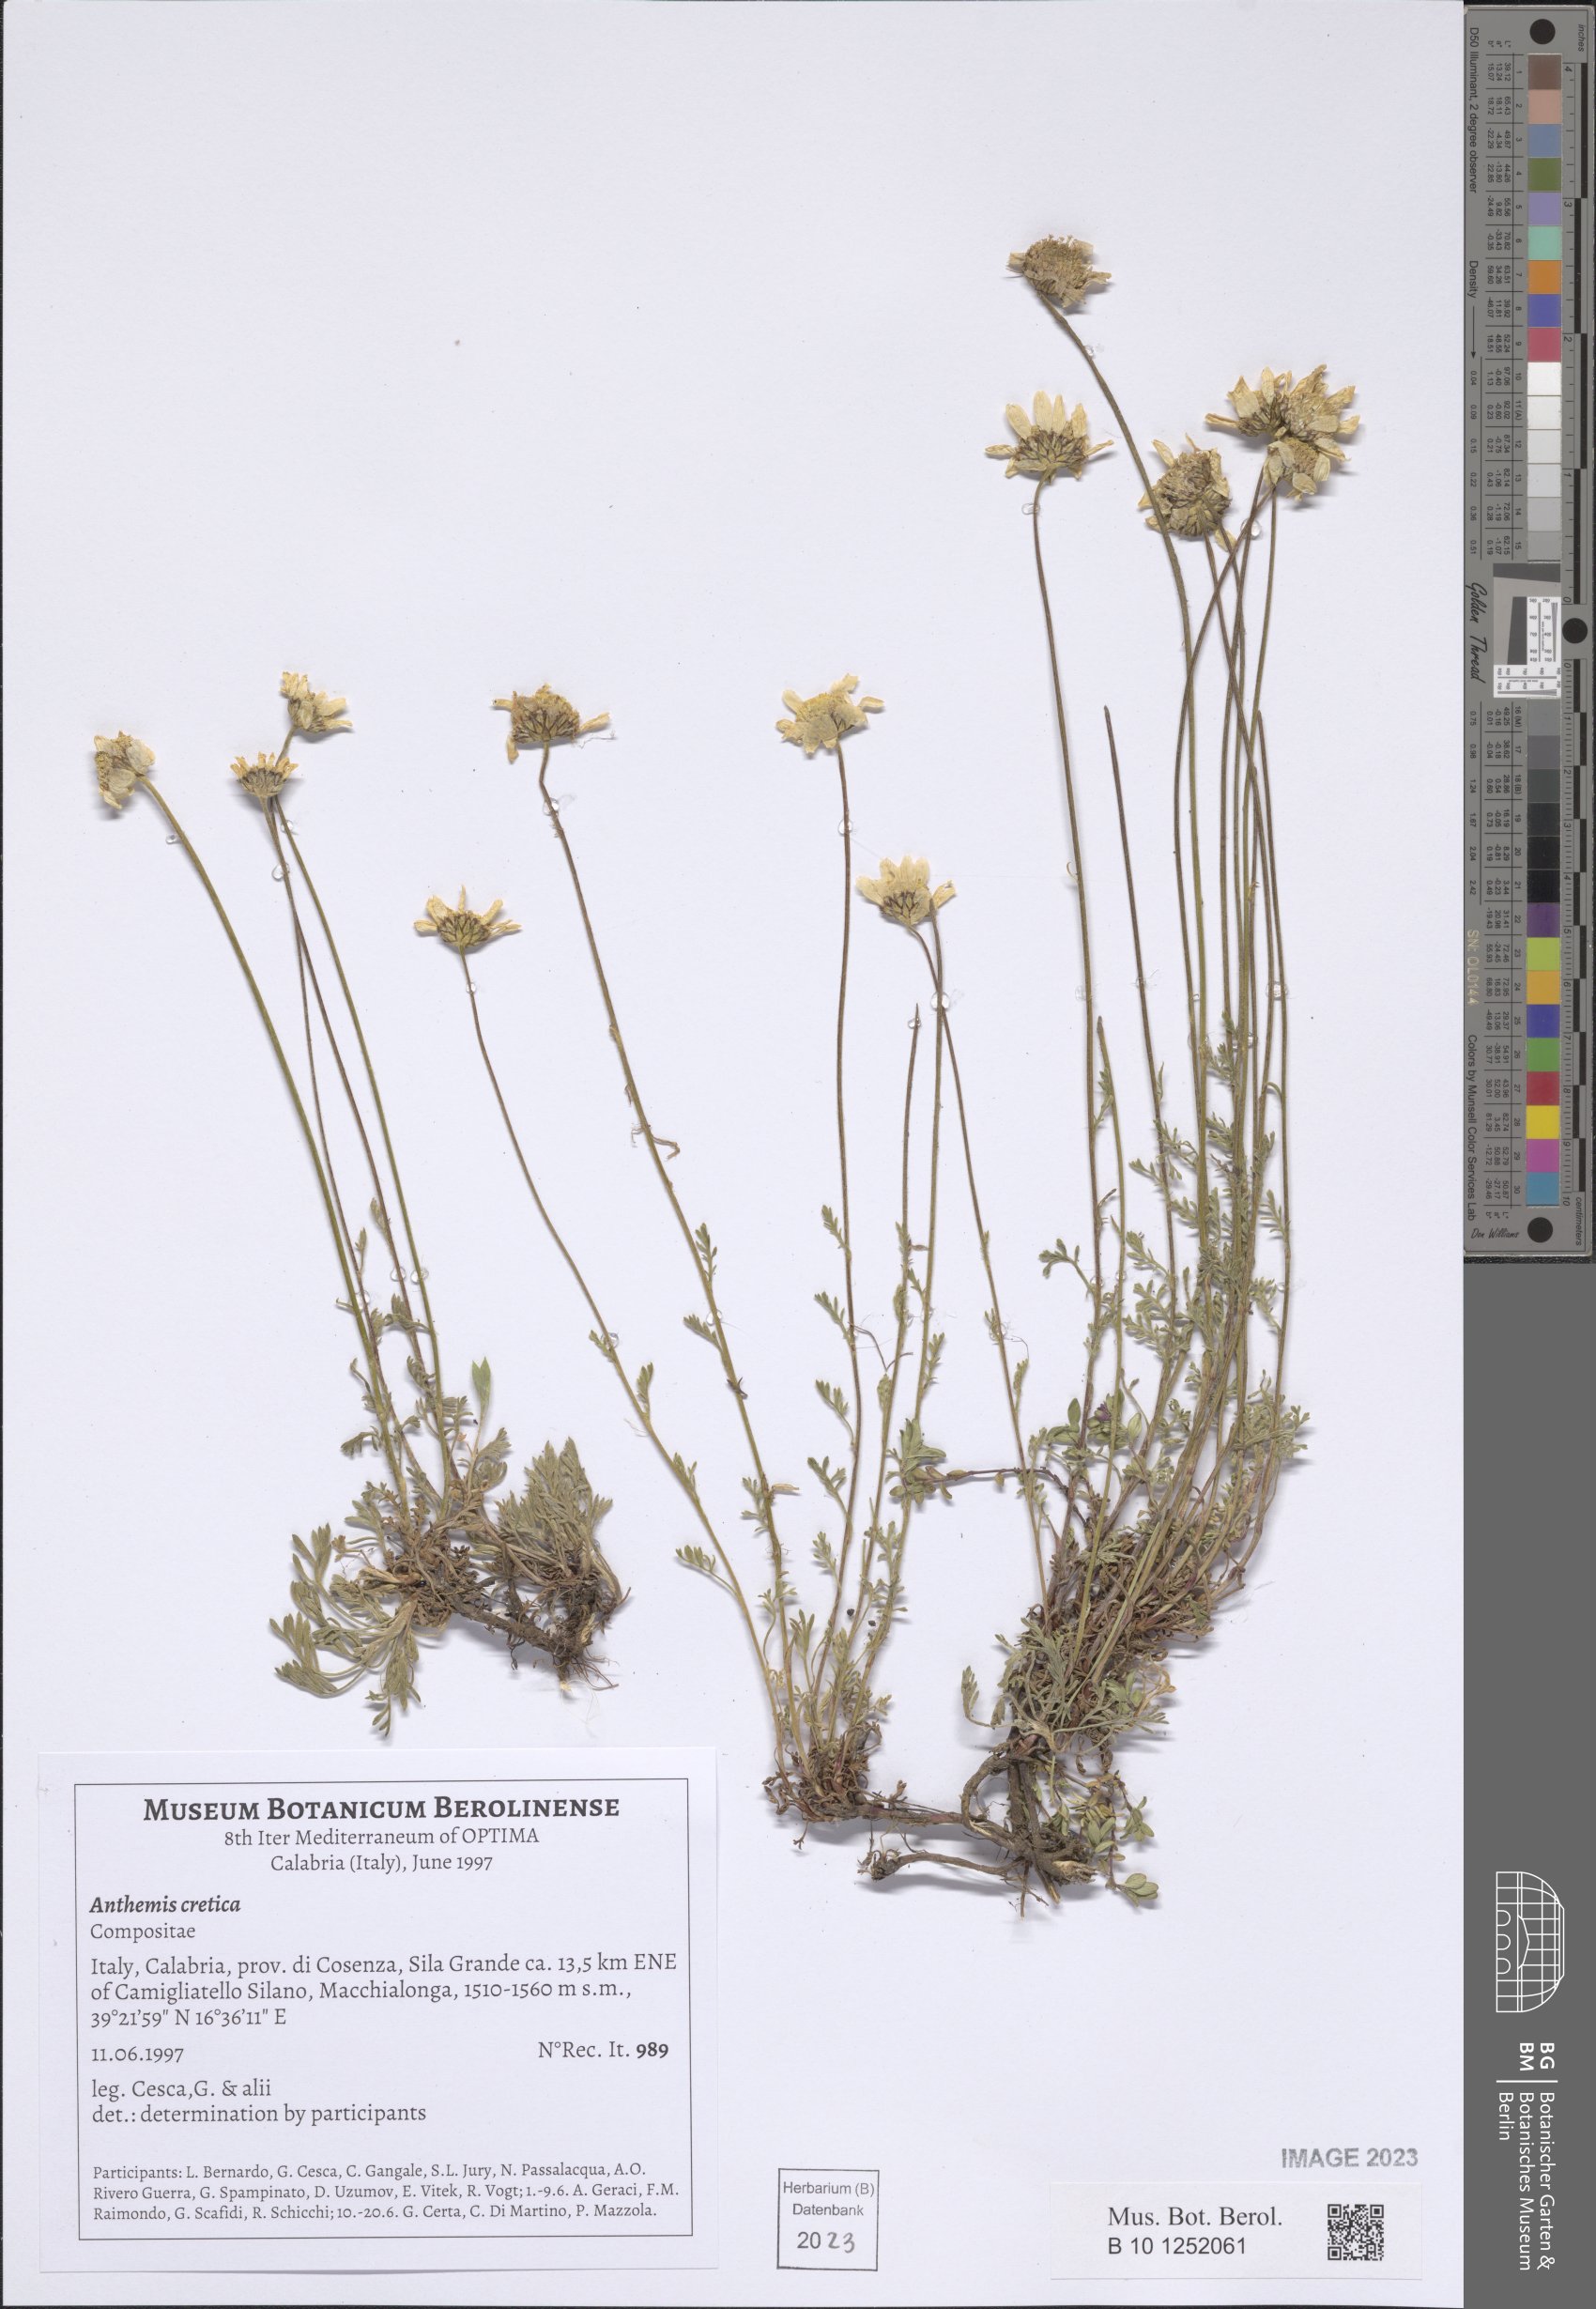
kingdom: Plantae
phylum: Tracheophyta
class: Magnoliopsida
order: Asterales
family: Asteraceae
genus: Anthemis
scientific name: Anthemis cretica
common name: Mountain dog-daisy
